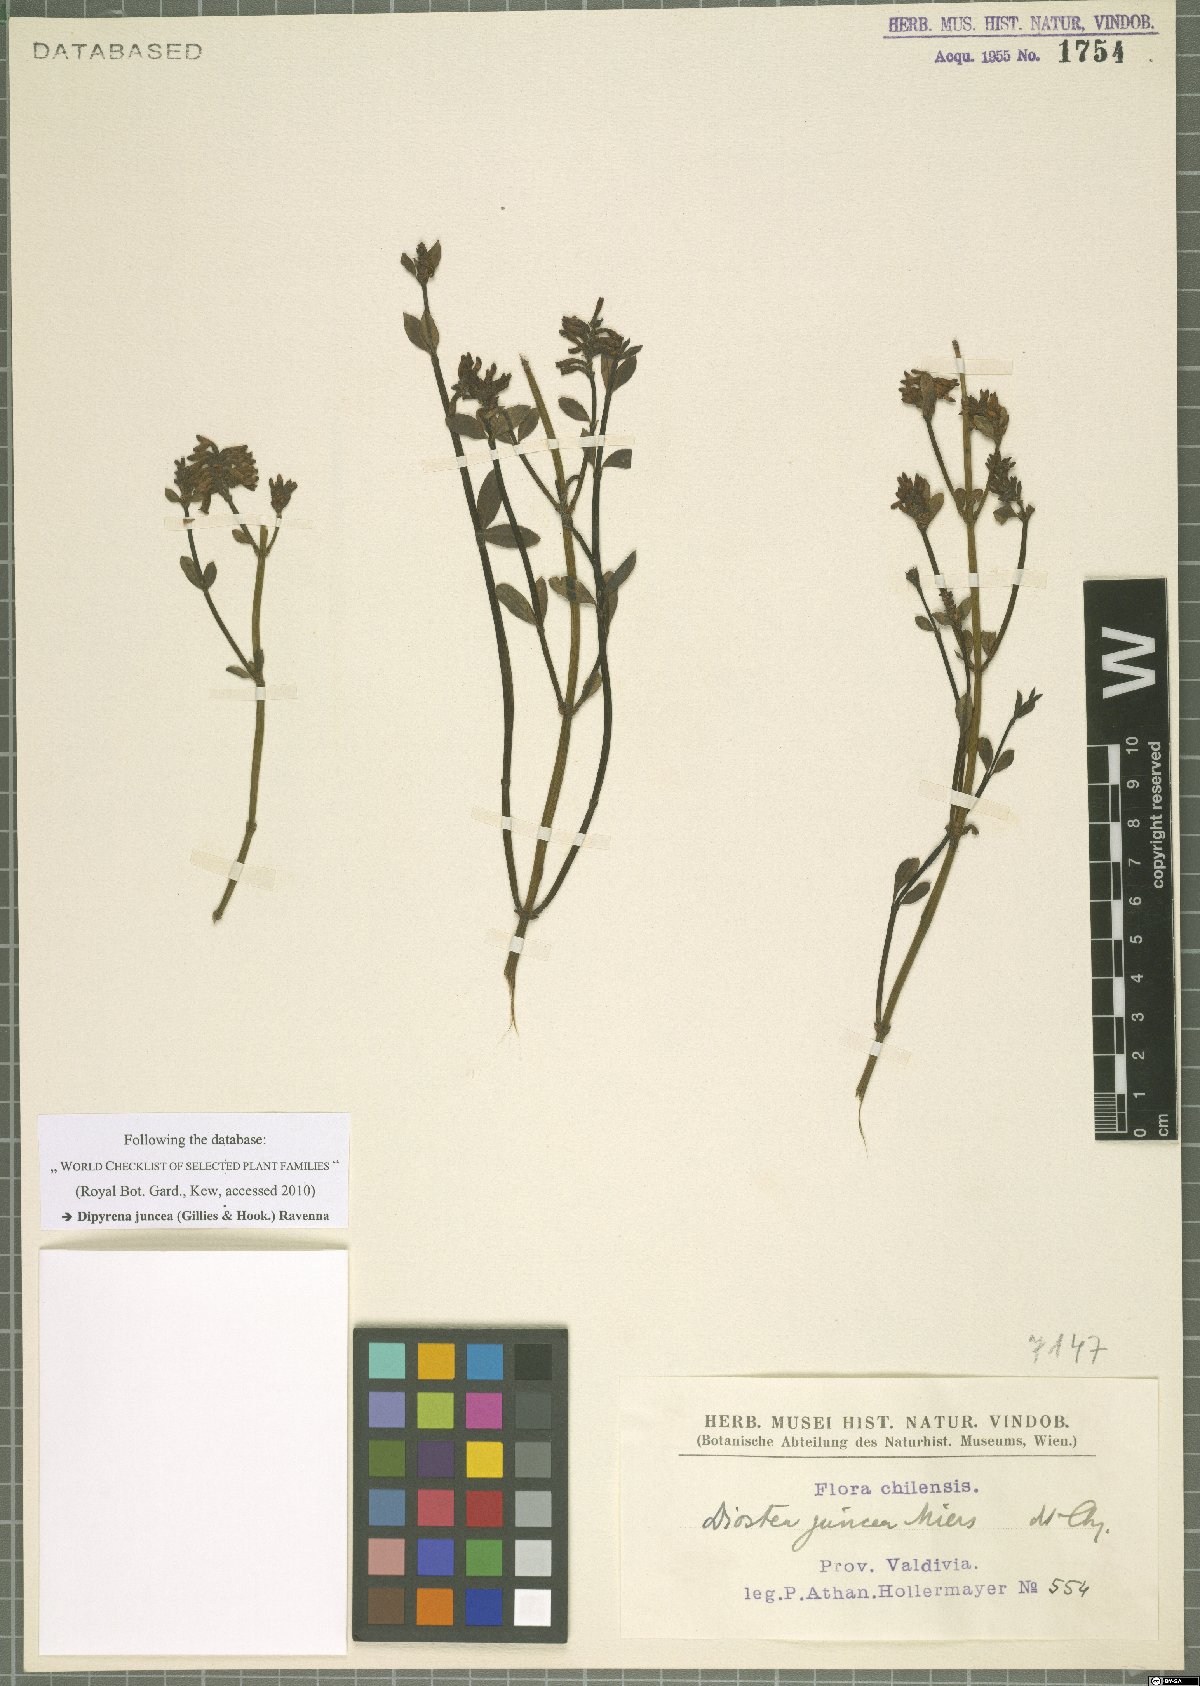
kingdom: Plantae
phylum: Tracheophyta
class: Magnoliopsida
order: Lamiales
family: Verbenaceae
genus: Diostea
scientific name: Diostea juncea
